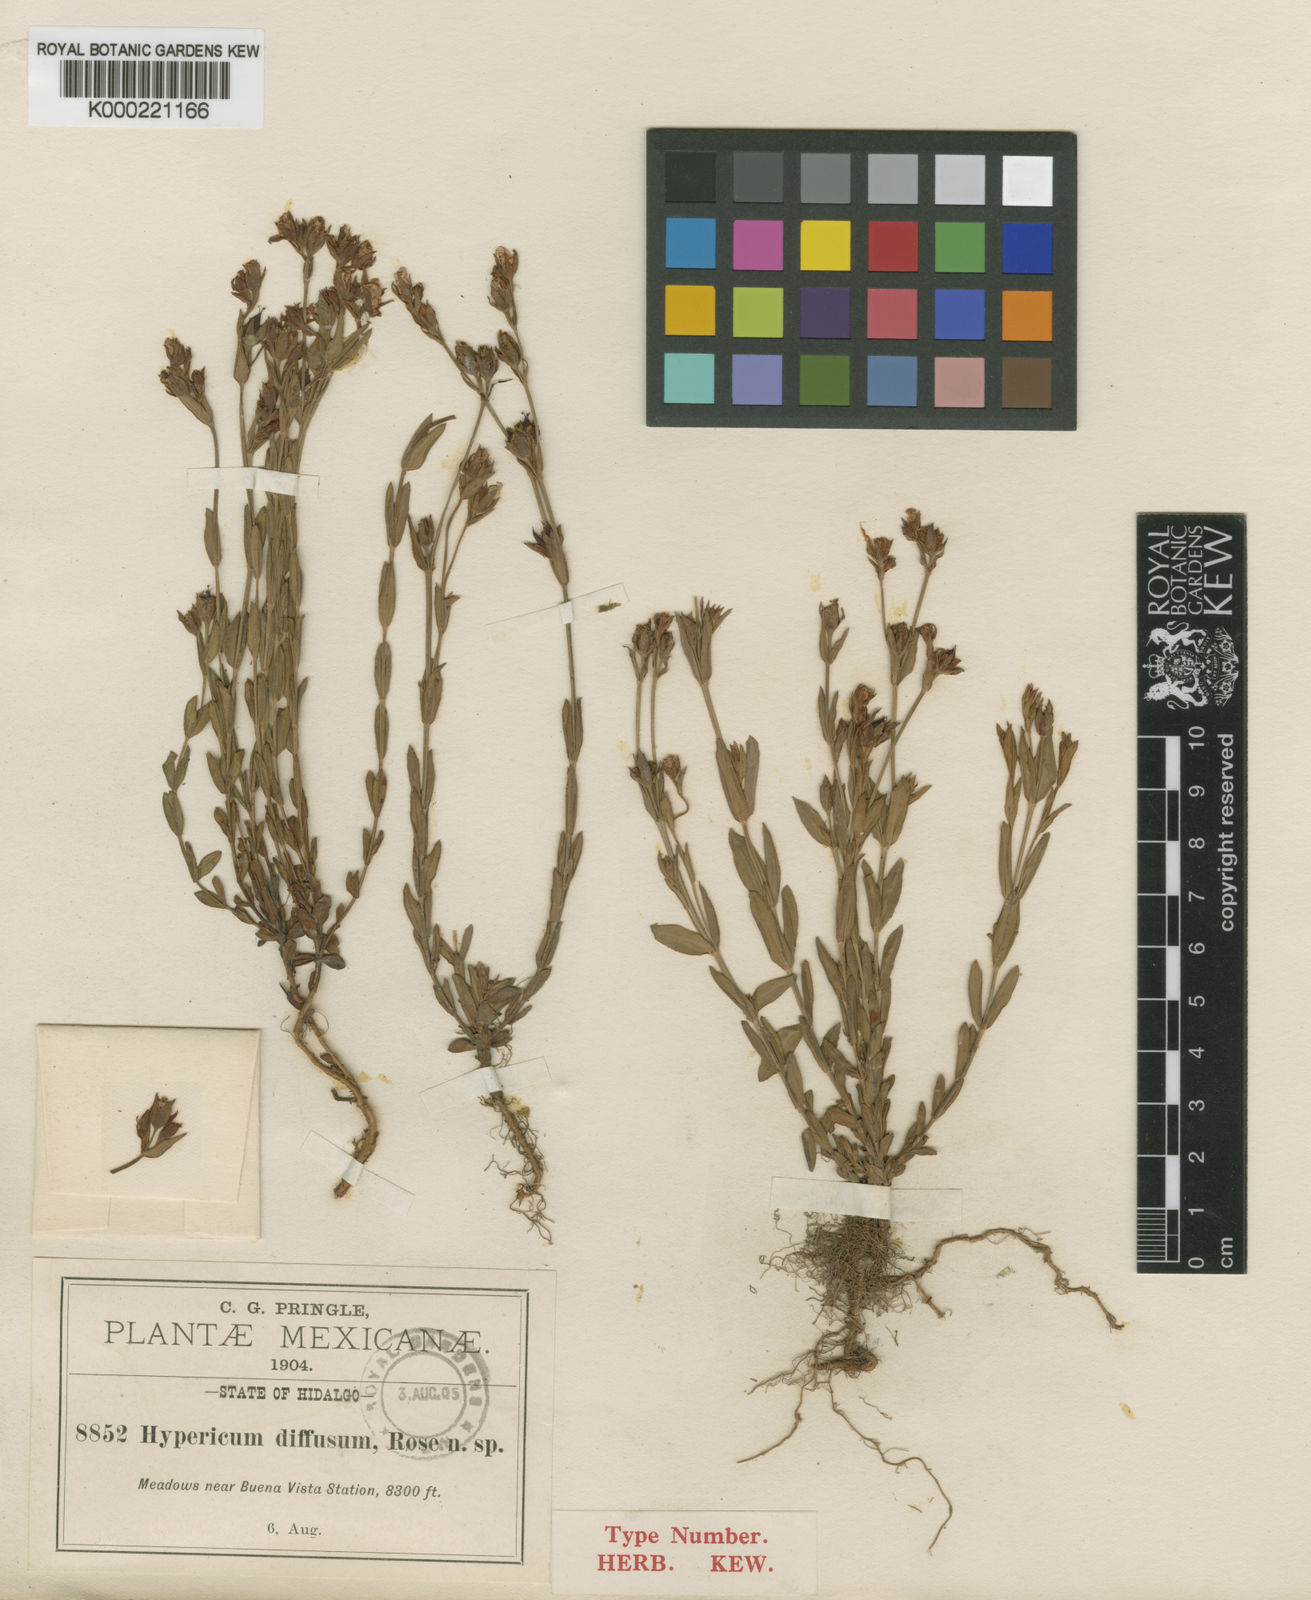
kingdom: Plantae
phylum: Tracheophyta
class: Magnoliopsida
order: Malpighiales
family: Hypericaceae
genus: Hypericum
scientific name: Hypericum
